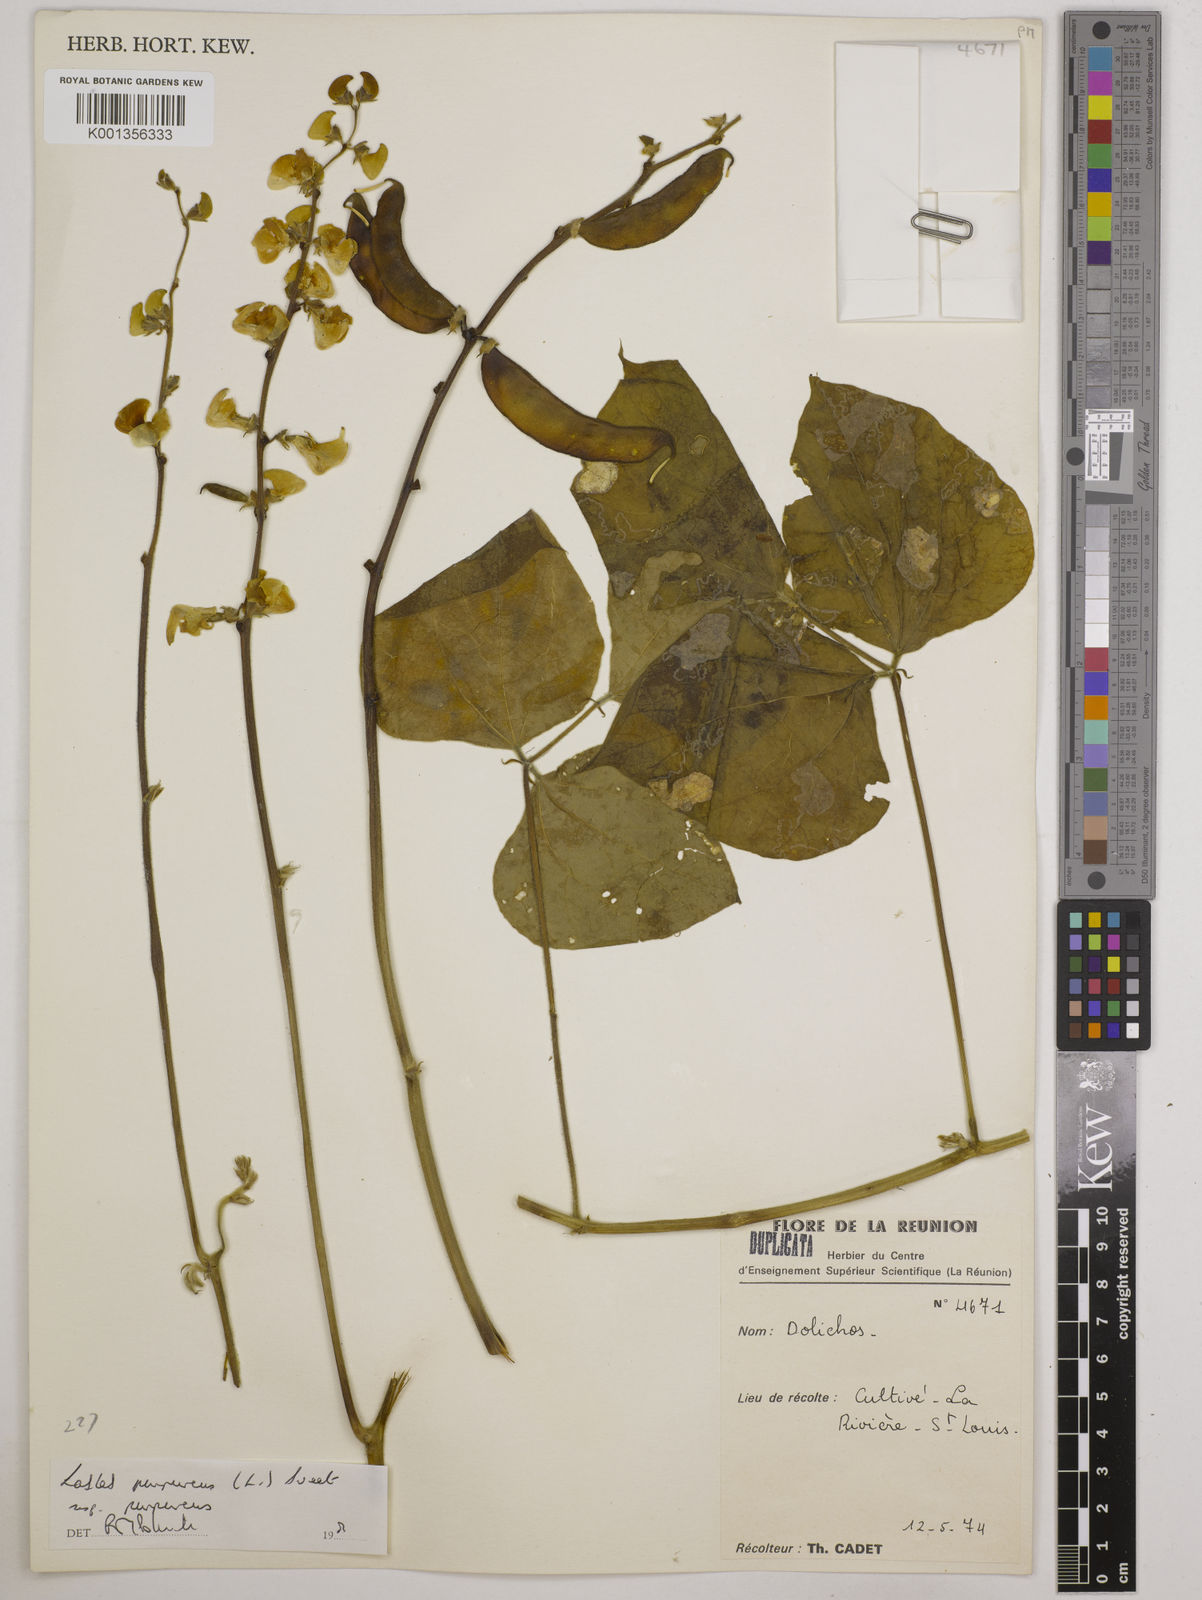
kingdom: Plantae
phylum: Tracheophyta
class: Magnoliopsida
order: Fabales
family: Fabaceae
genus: Lablab
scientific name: Lablab purpureus
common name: Lablab-bean
